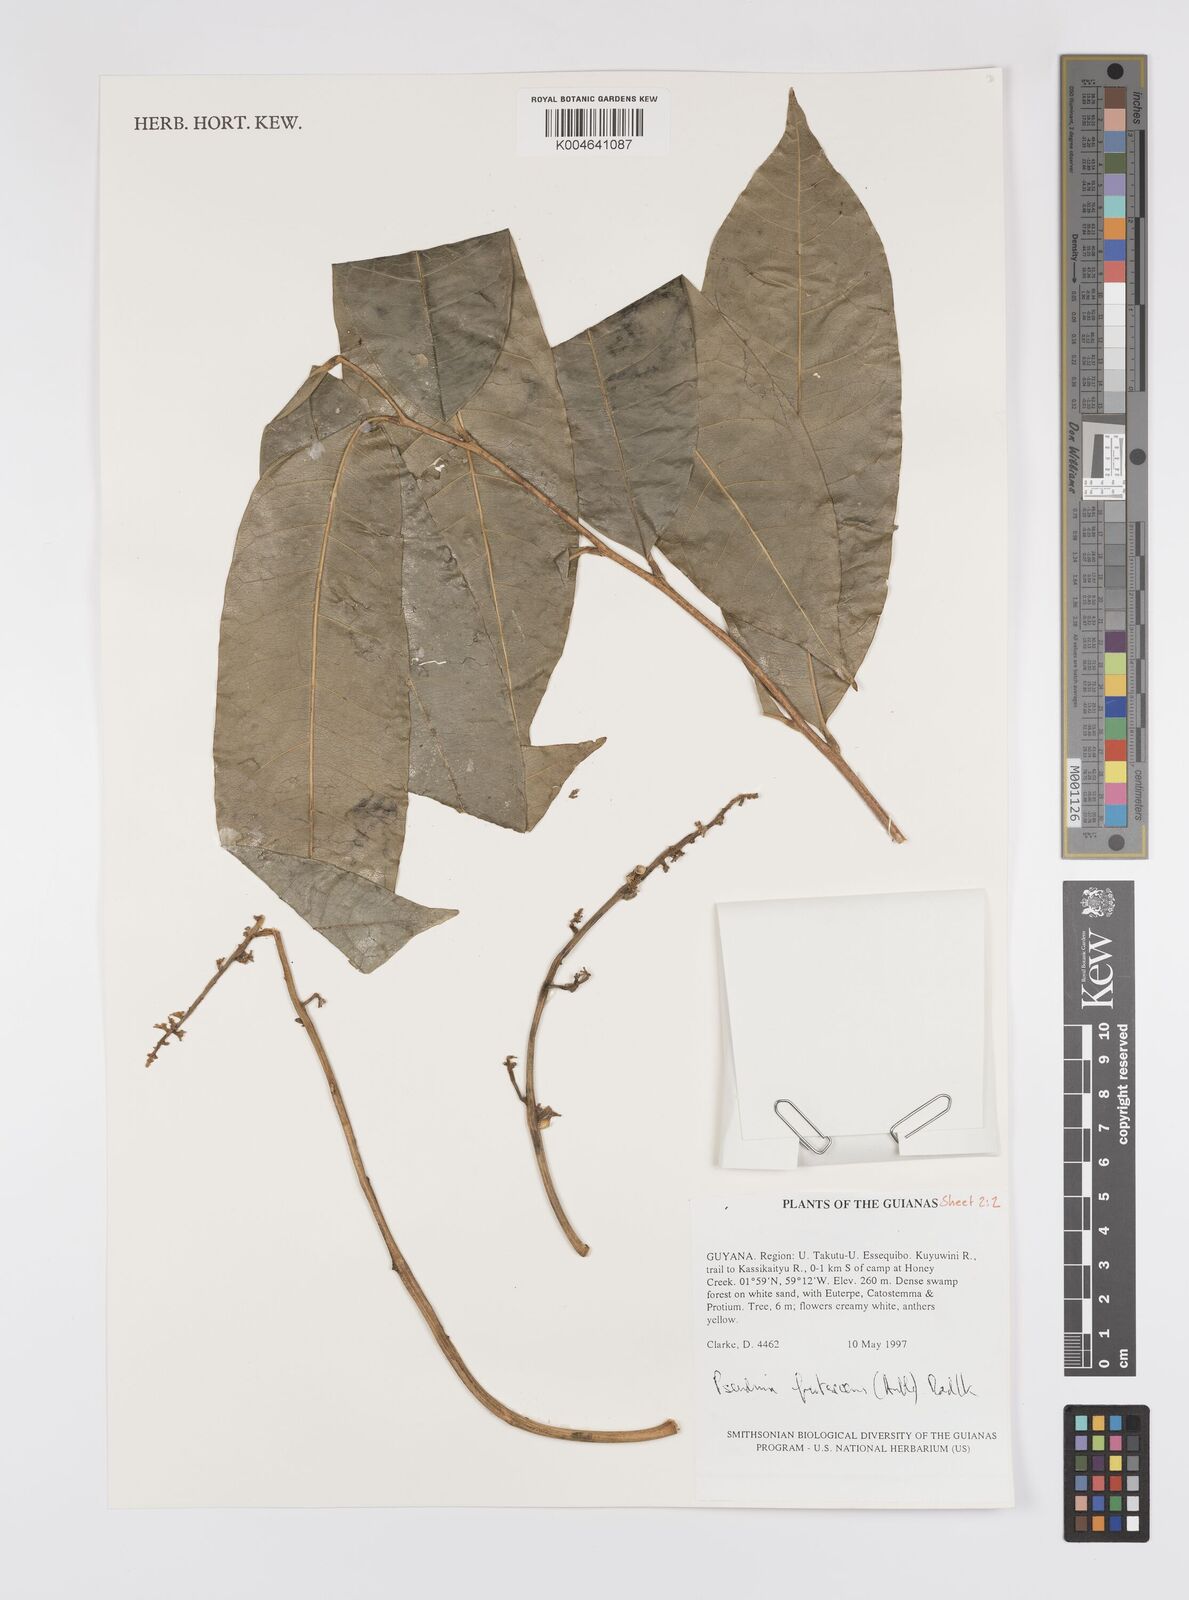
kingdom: Plantae
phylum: Tracheophyta
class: Magnoliopsida
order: Sapindales
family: Sapindaceae
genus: Pseudima
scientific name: Pseudima frutescens
